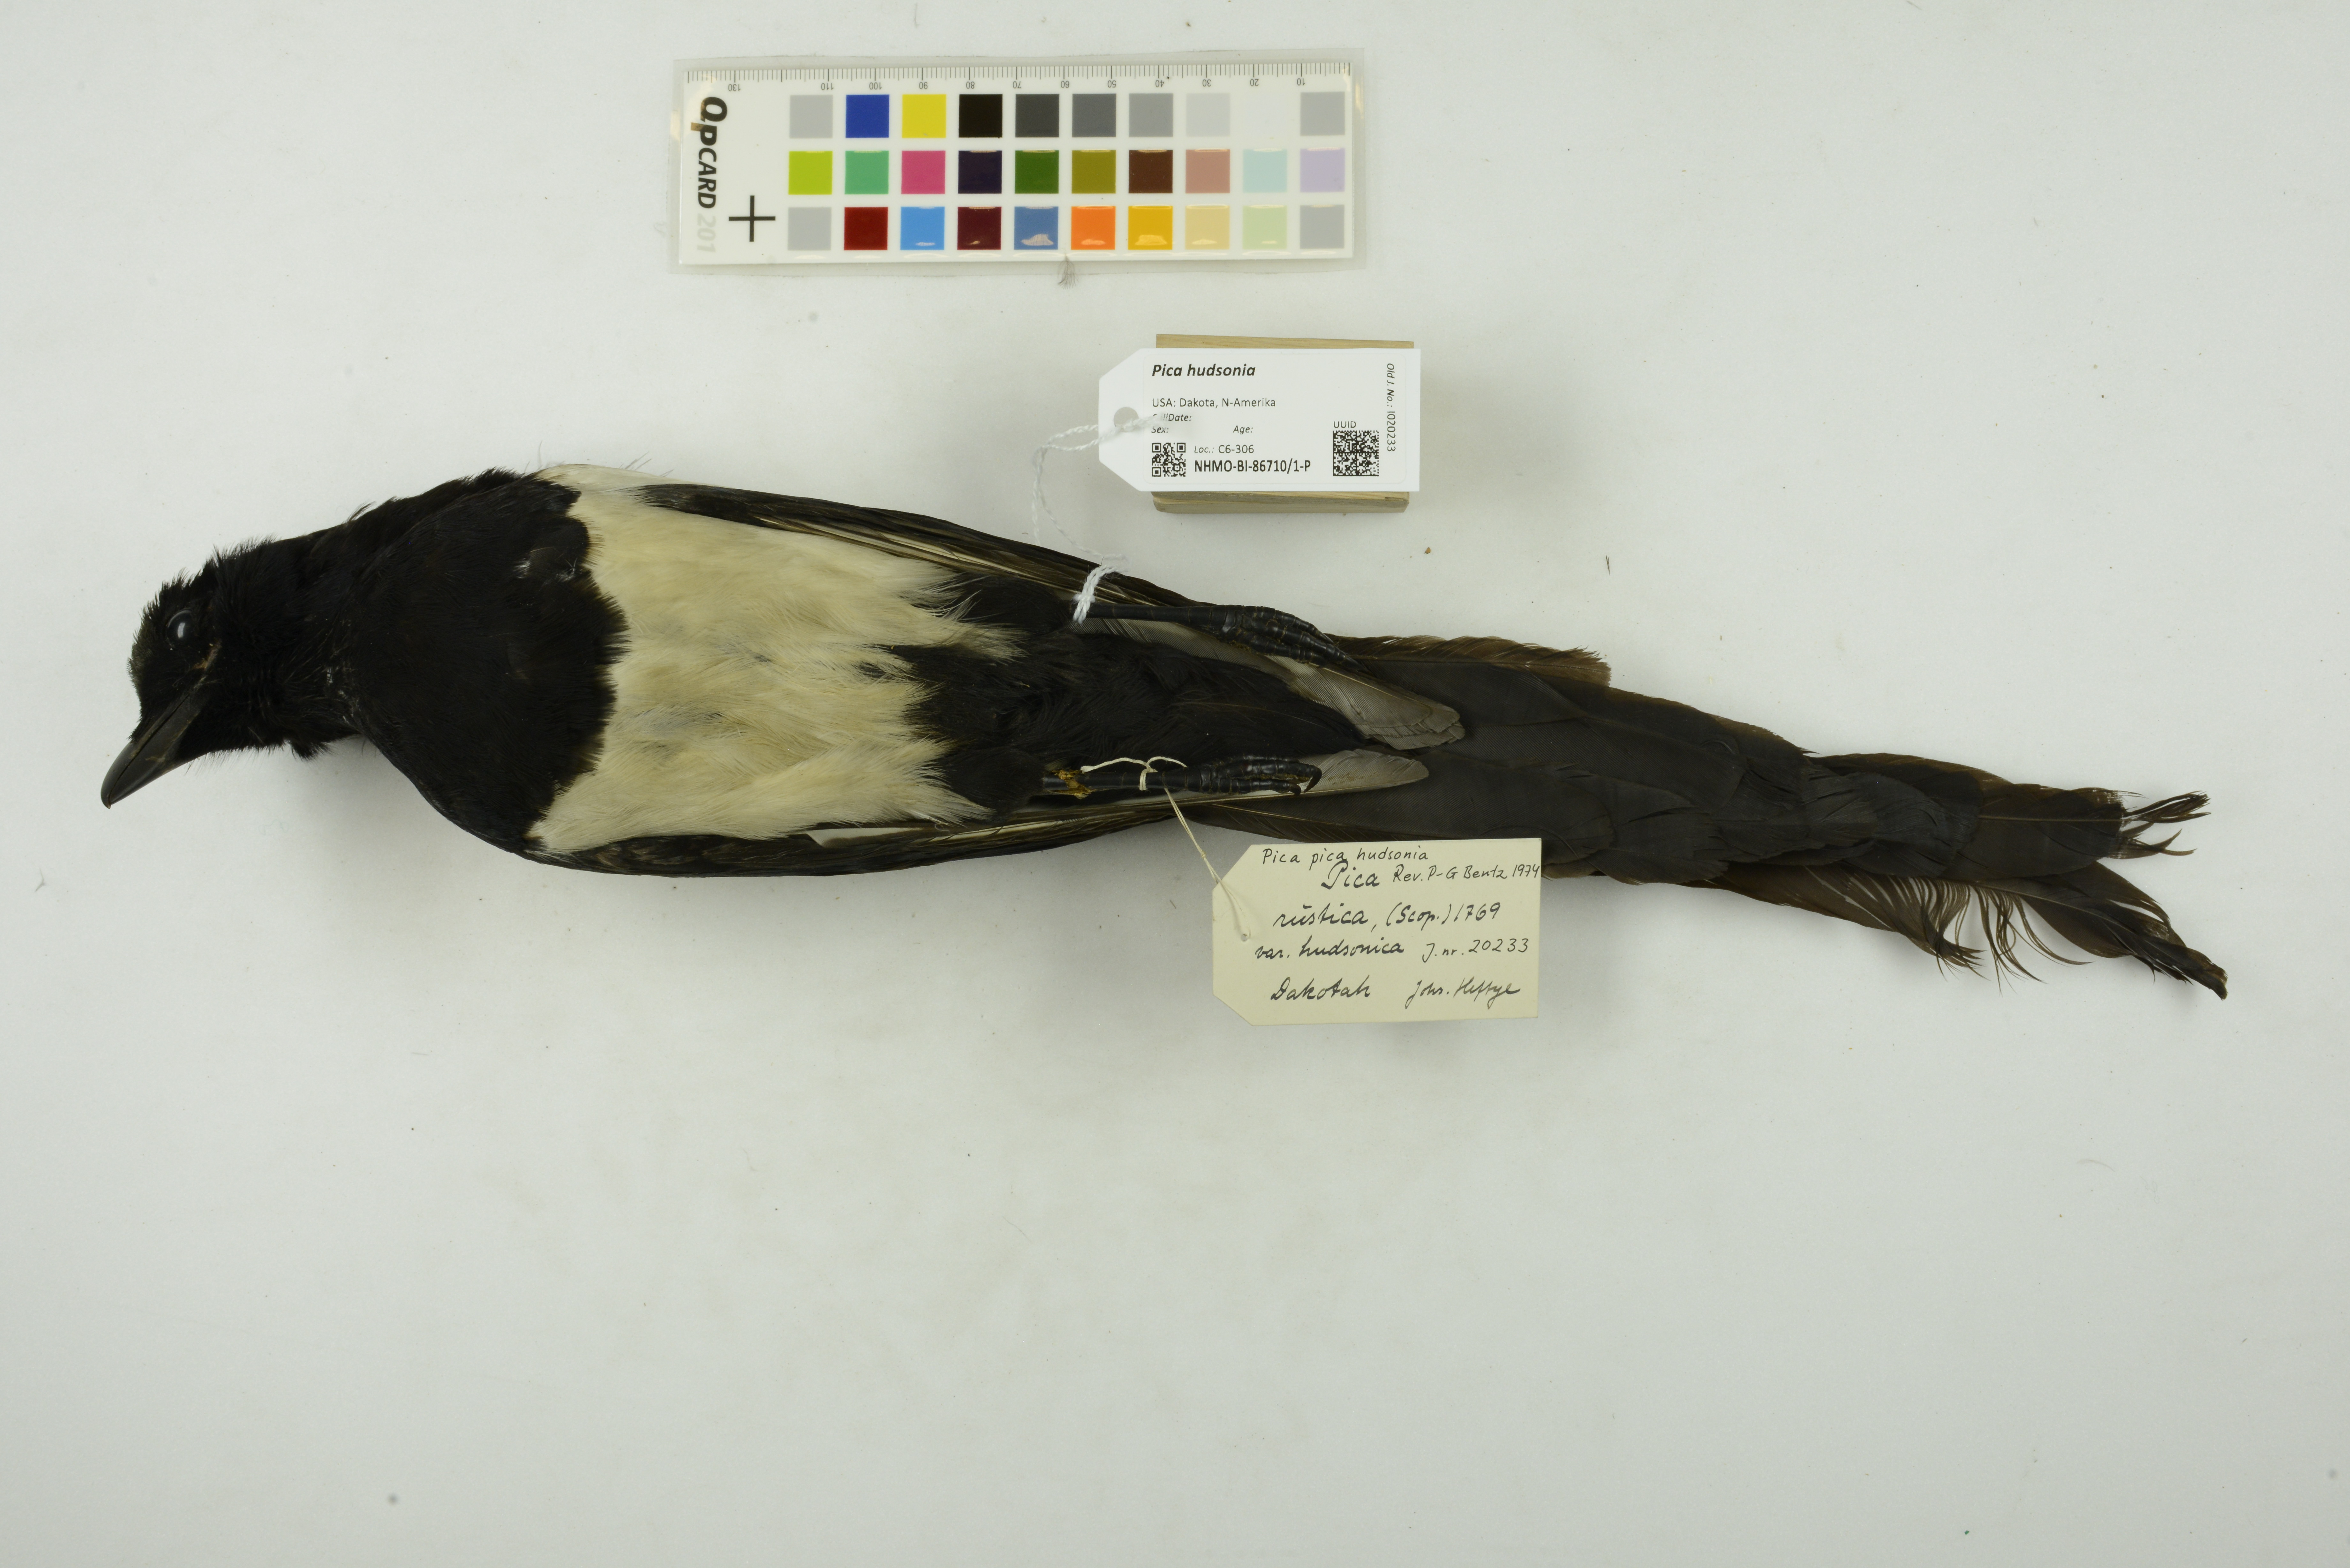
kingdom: Animalia
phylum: Chordata
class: Aves
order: Passeriformes
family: Corvidae
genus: Pica
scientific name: Pica hudsonia
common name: Black-billed magpie
